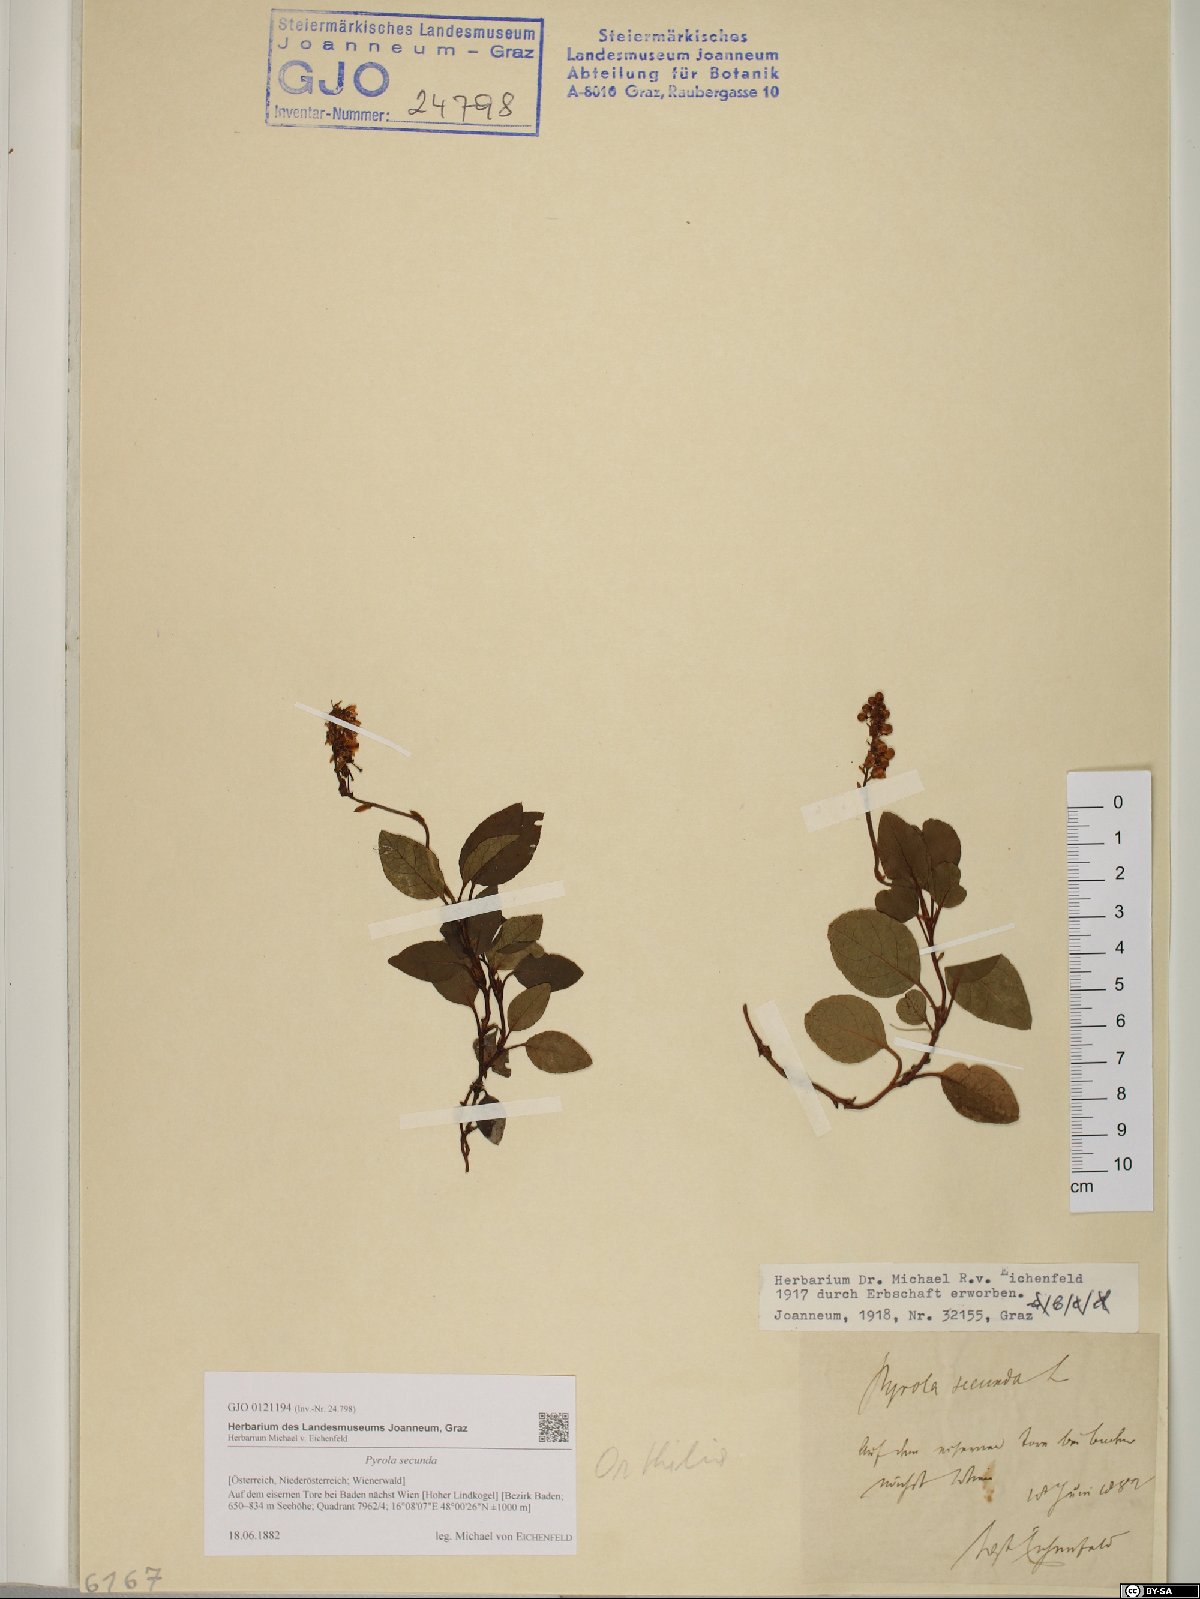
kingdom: Plantae
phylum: Tracheophyta
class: Magnoliopsida
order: Ericales
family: Ericaceae
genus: Orthilia
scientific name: Orthilia secunda
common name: One-sided orthilia
